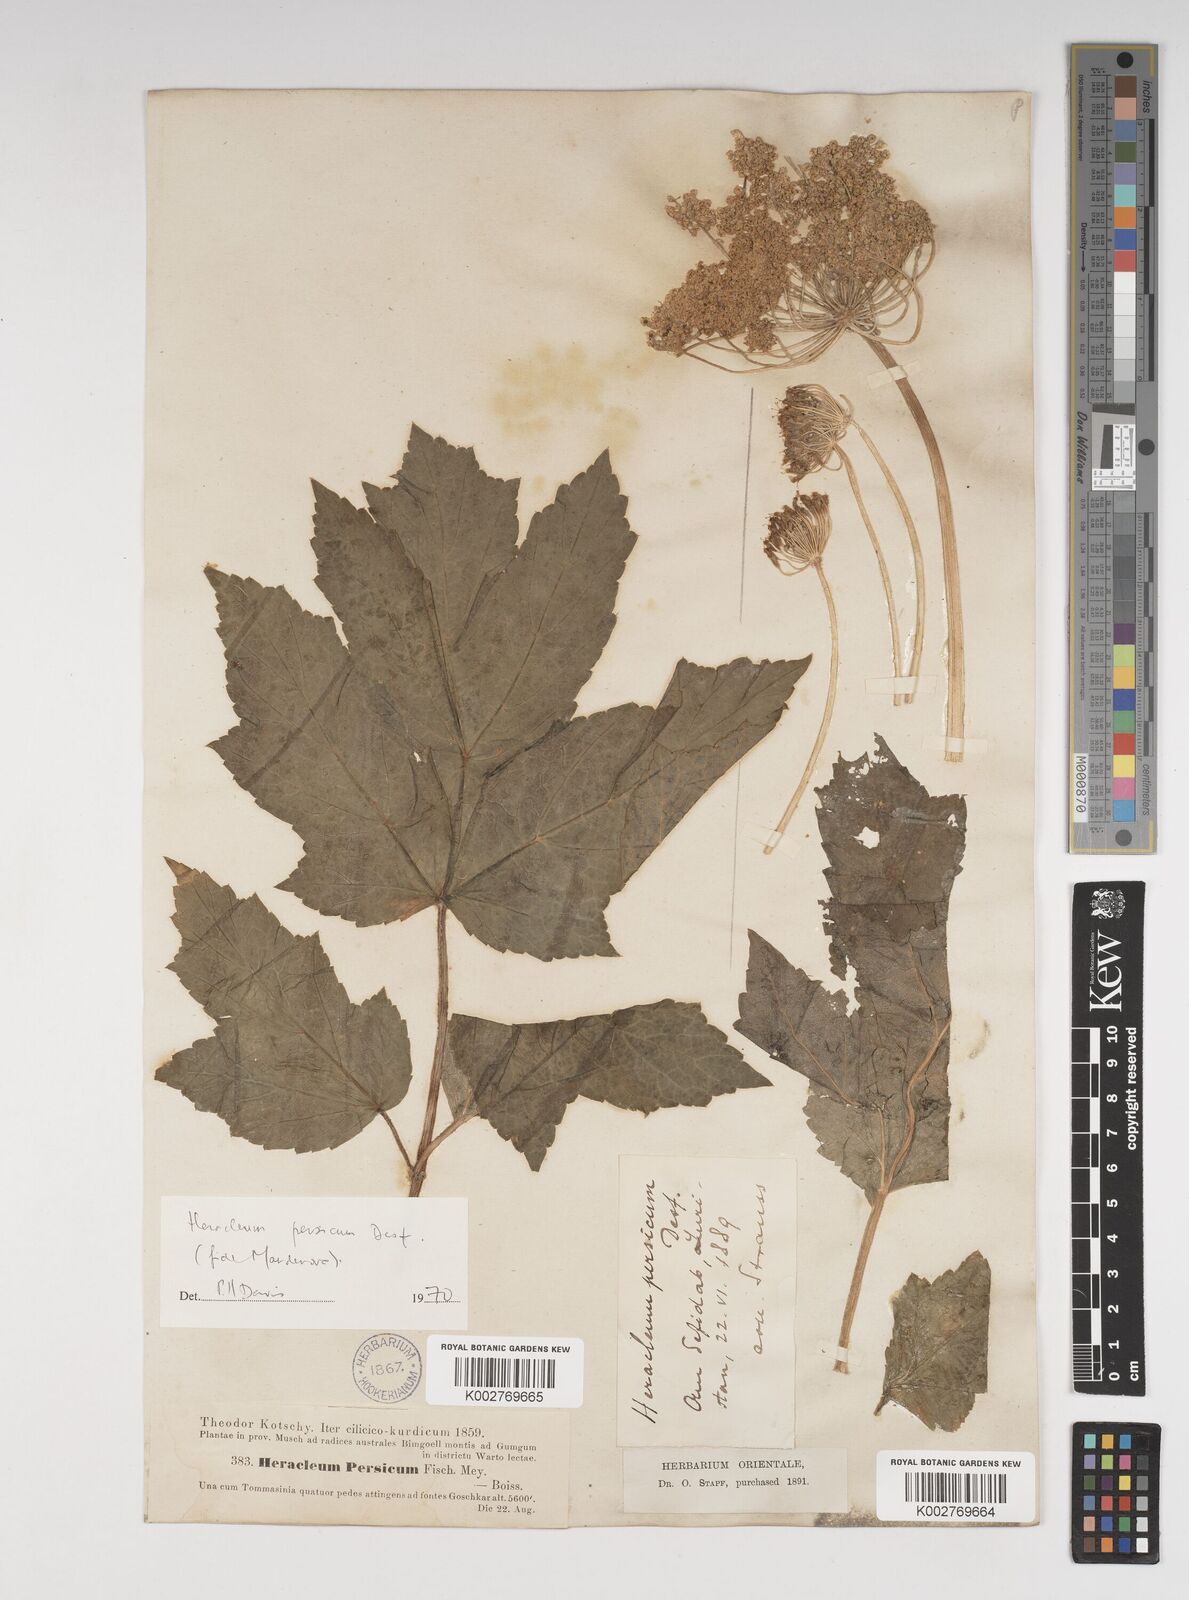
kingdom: Plantae
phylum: Tracheophyta
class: Magnoliopsida
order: Apiales
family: Apiaceae
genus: Heracleum
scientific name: Heracleum persicum
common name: Persian hogweed
